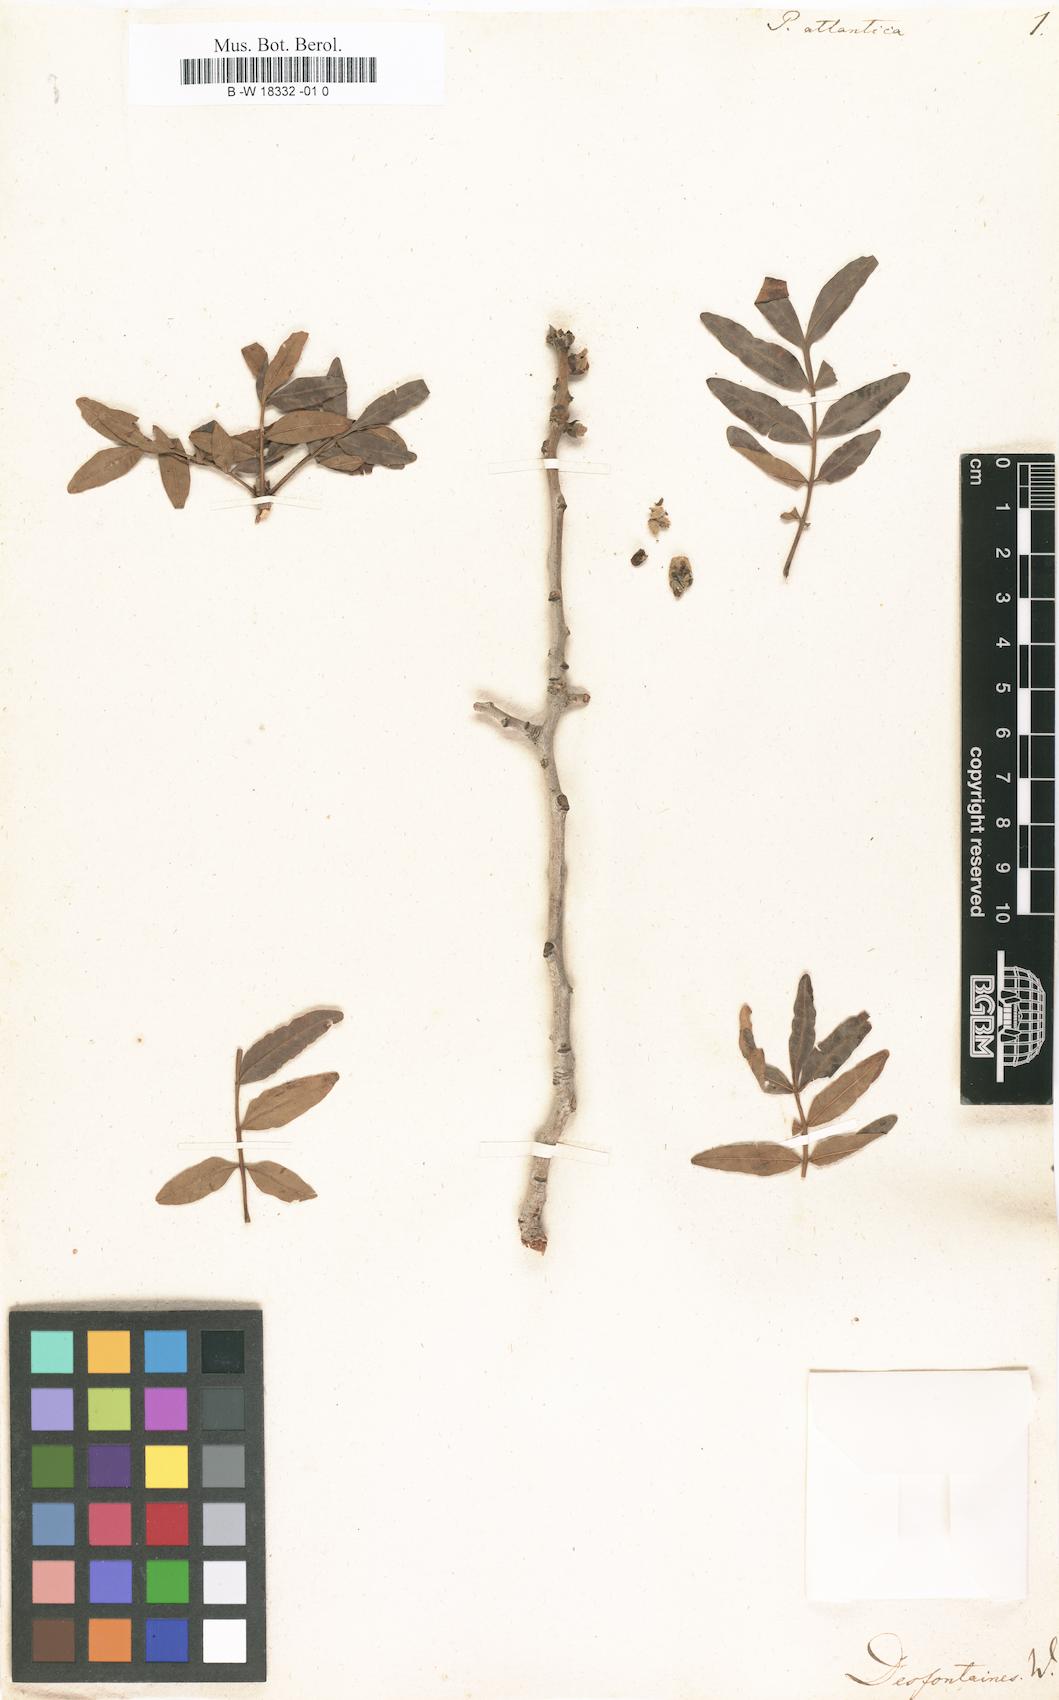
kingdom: Plantae
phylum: Tracheophyta
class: Magnoliopsida
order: Sapindales
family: Anacardiaceae
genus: Pistacia
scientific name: Pistacia atlantica
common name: Mt. atlas mastic tree
